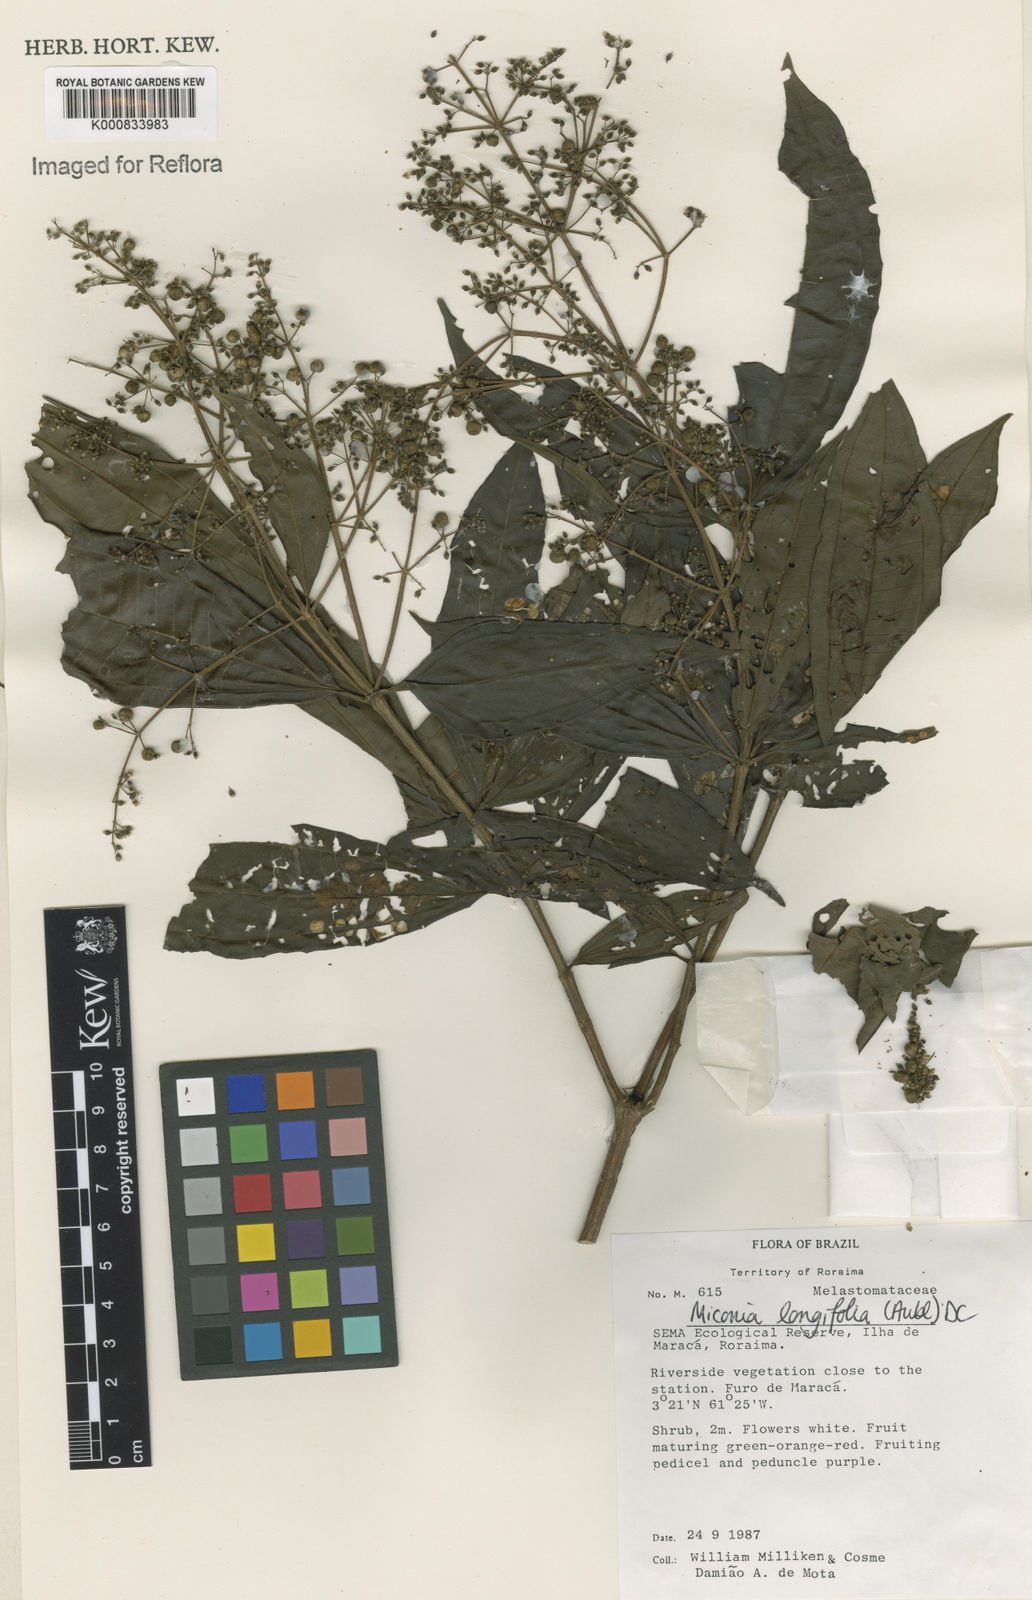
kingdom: Plantae
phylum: Tracheophyta
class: Magnoliopsida
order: Myrtales
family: Melastomataceae
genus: Miconia
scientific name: Miconia longifolia
